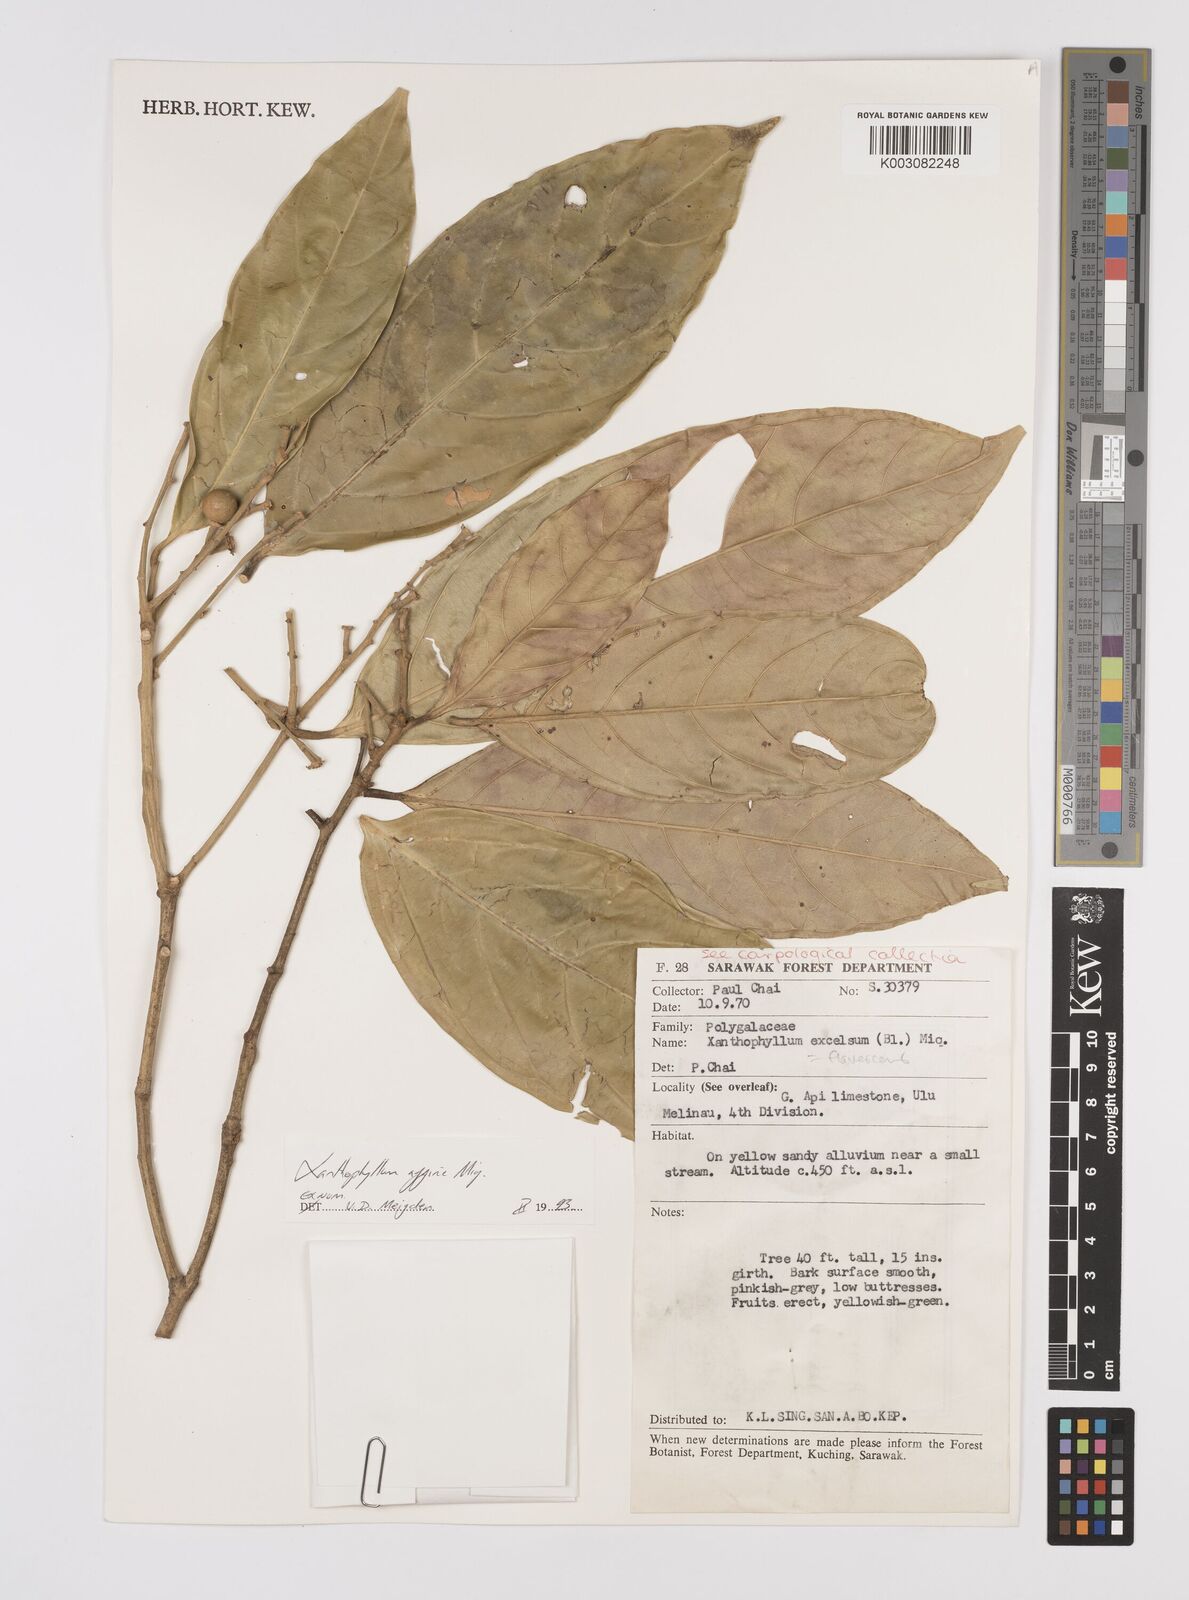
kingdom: Plantae
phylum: Tracheophyta
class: Magnoliopsida
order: Fabales
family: Polygalaceae
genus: Xanthophyllum
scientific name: Xanthophyllum flavescens
